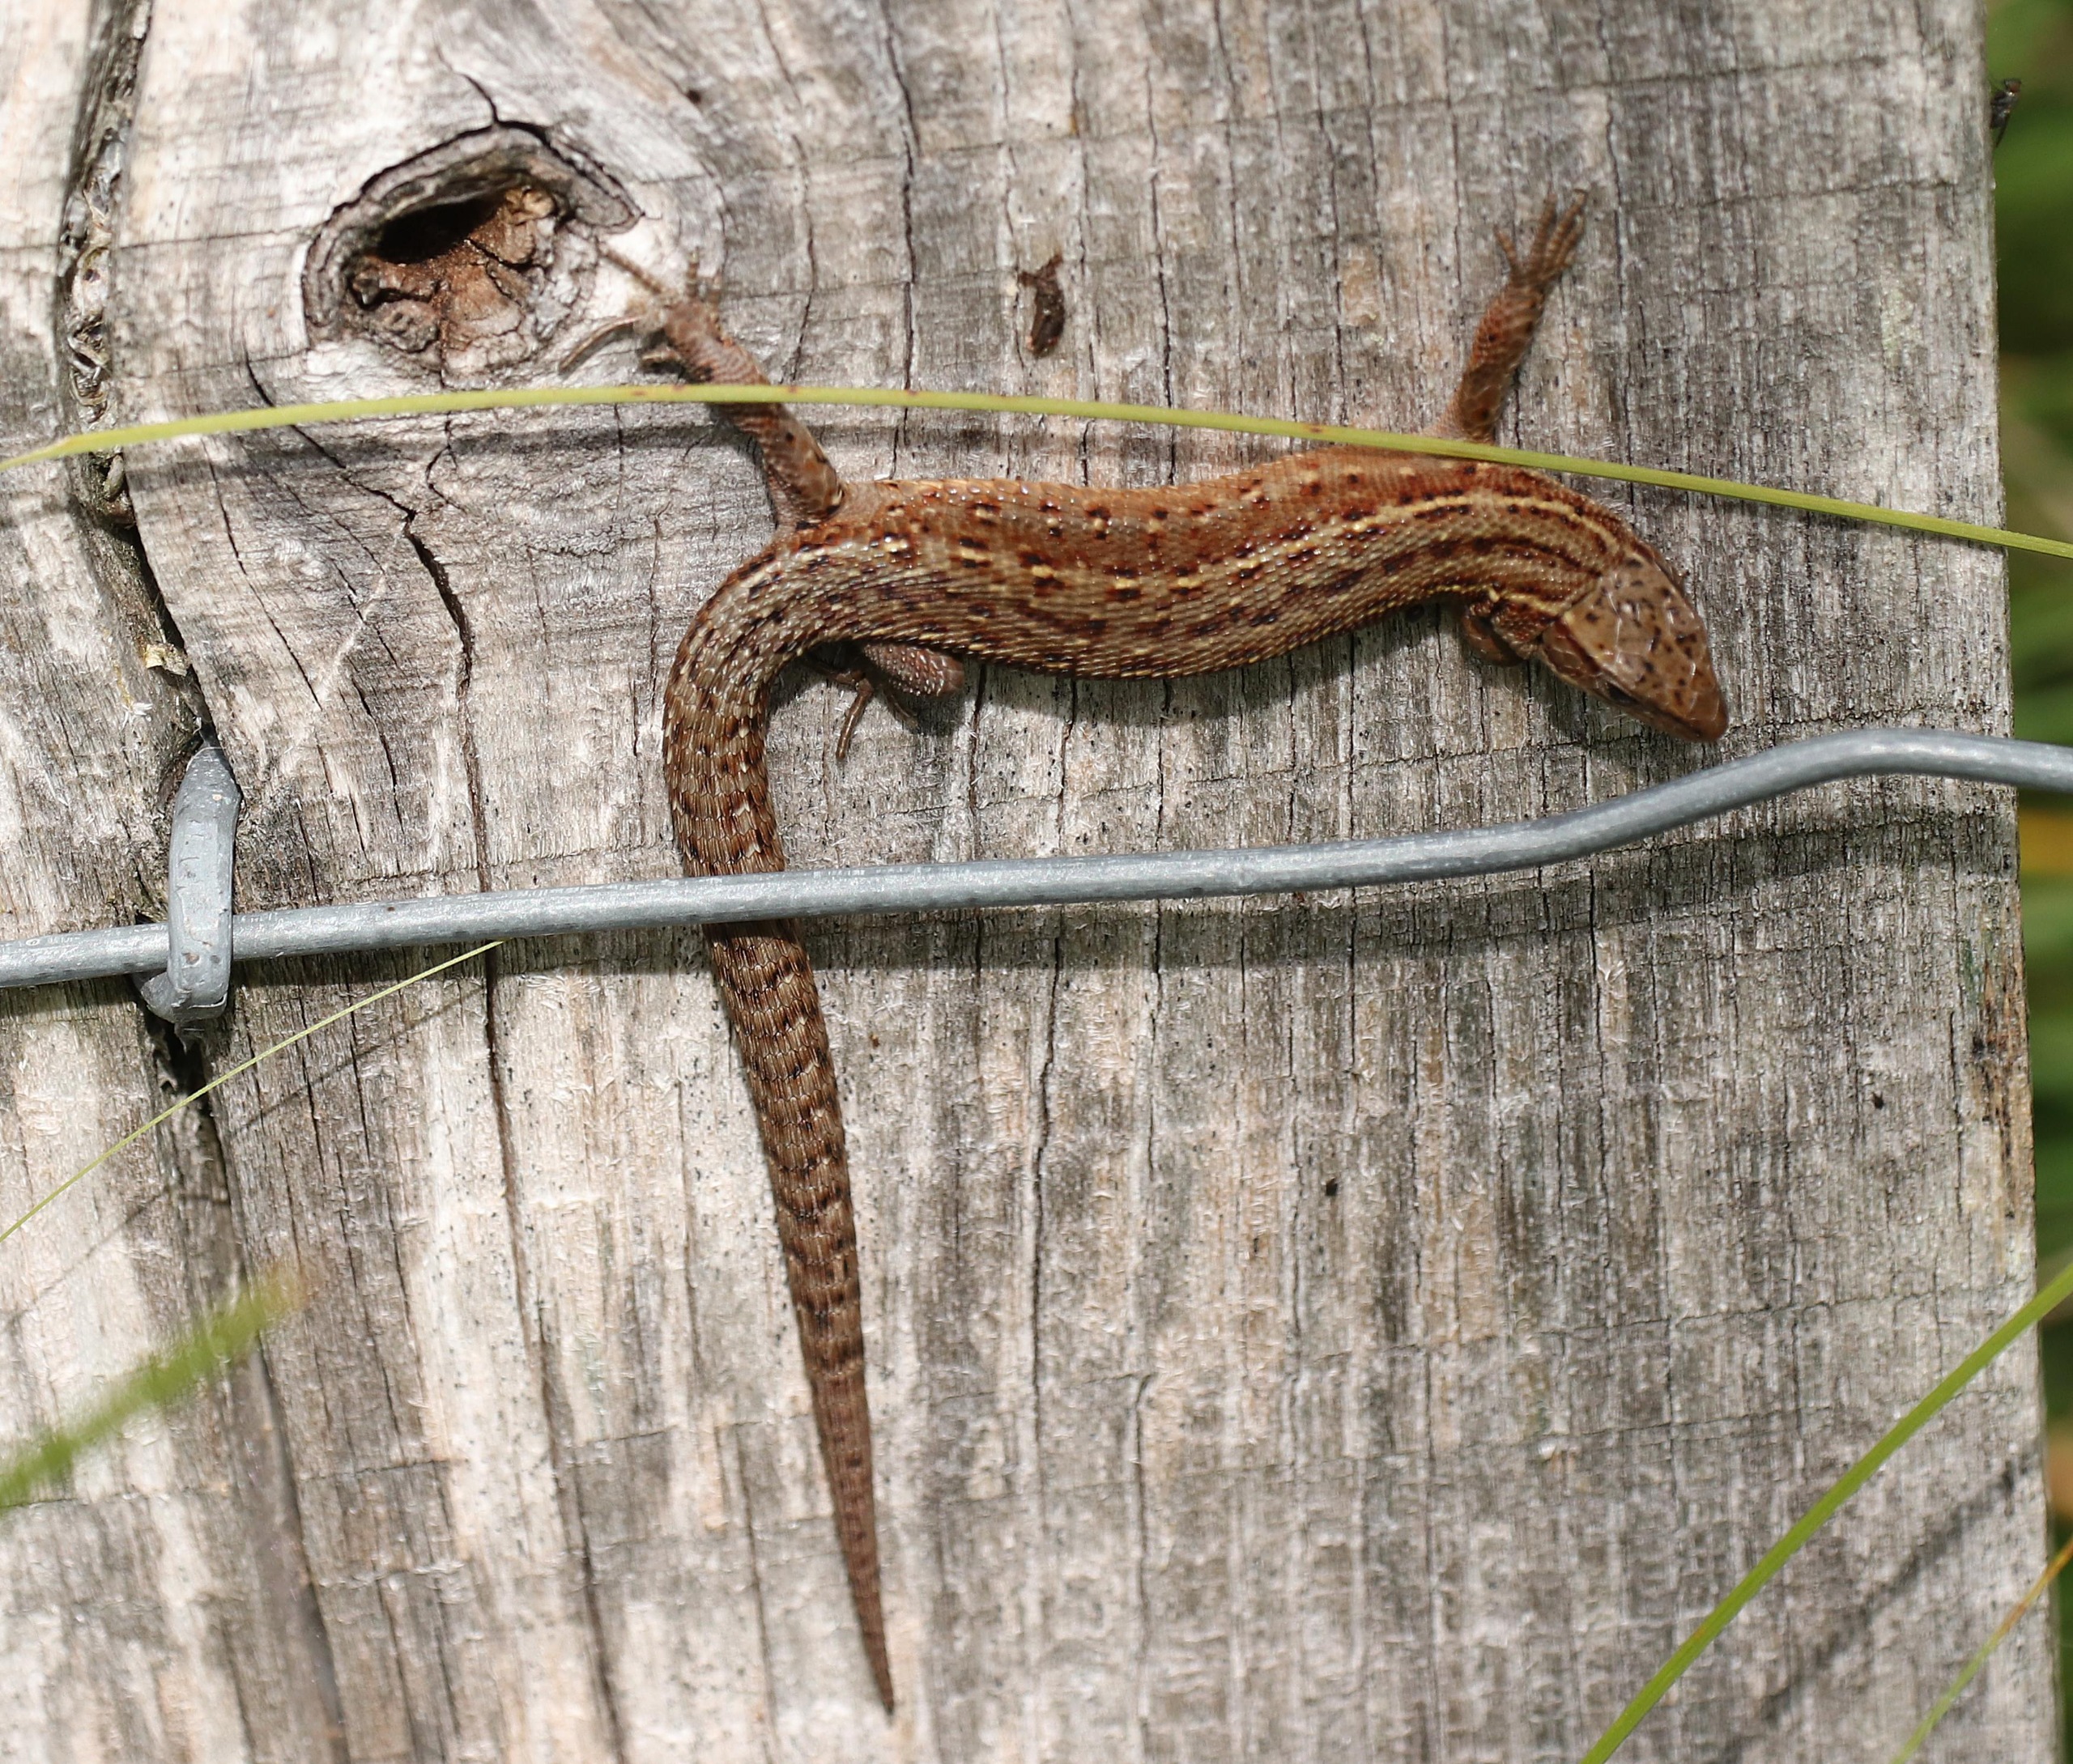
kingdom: Animalia
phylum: Chordata
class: Squamata
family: Lacertidae
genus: Zootoca
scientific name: Zootoca vivipara
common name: Skovfirben
